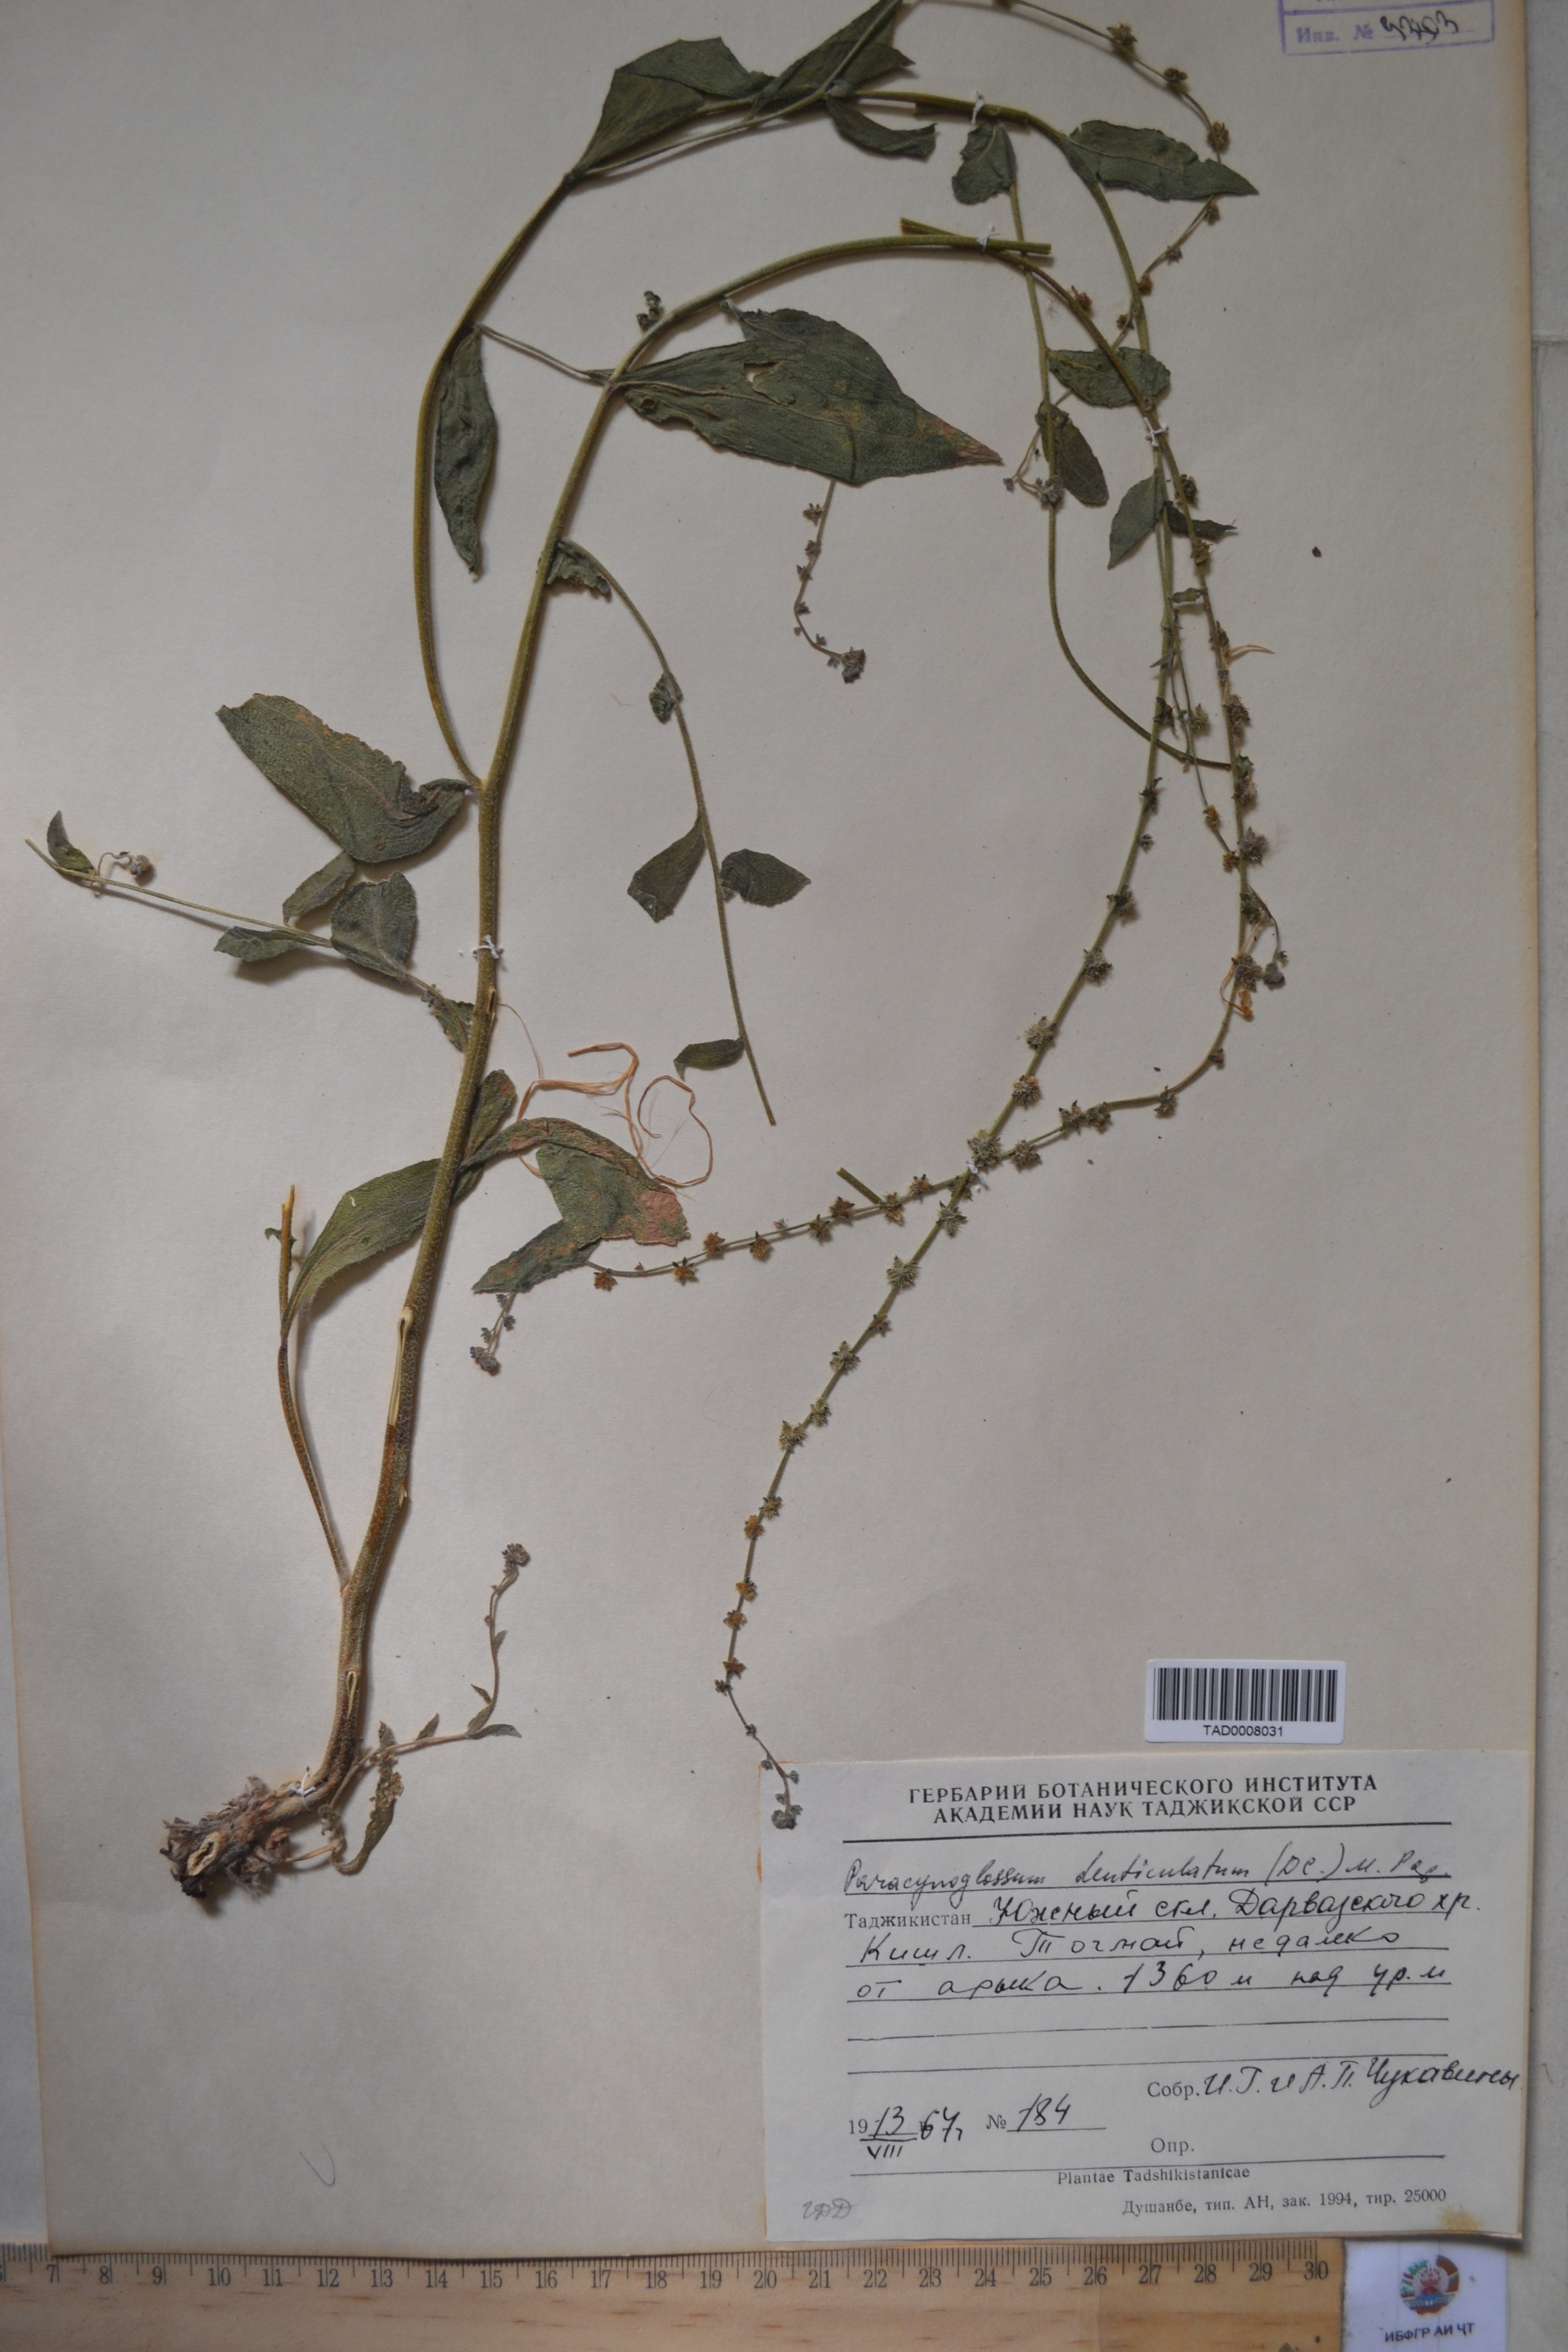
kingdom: Plantae
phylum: Tracheophyta
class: Magnoliopsida
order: Boraginales
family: Boraginaceae
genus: Paracynoglossum
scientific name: Paracynoglossum glochidiatum
